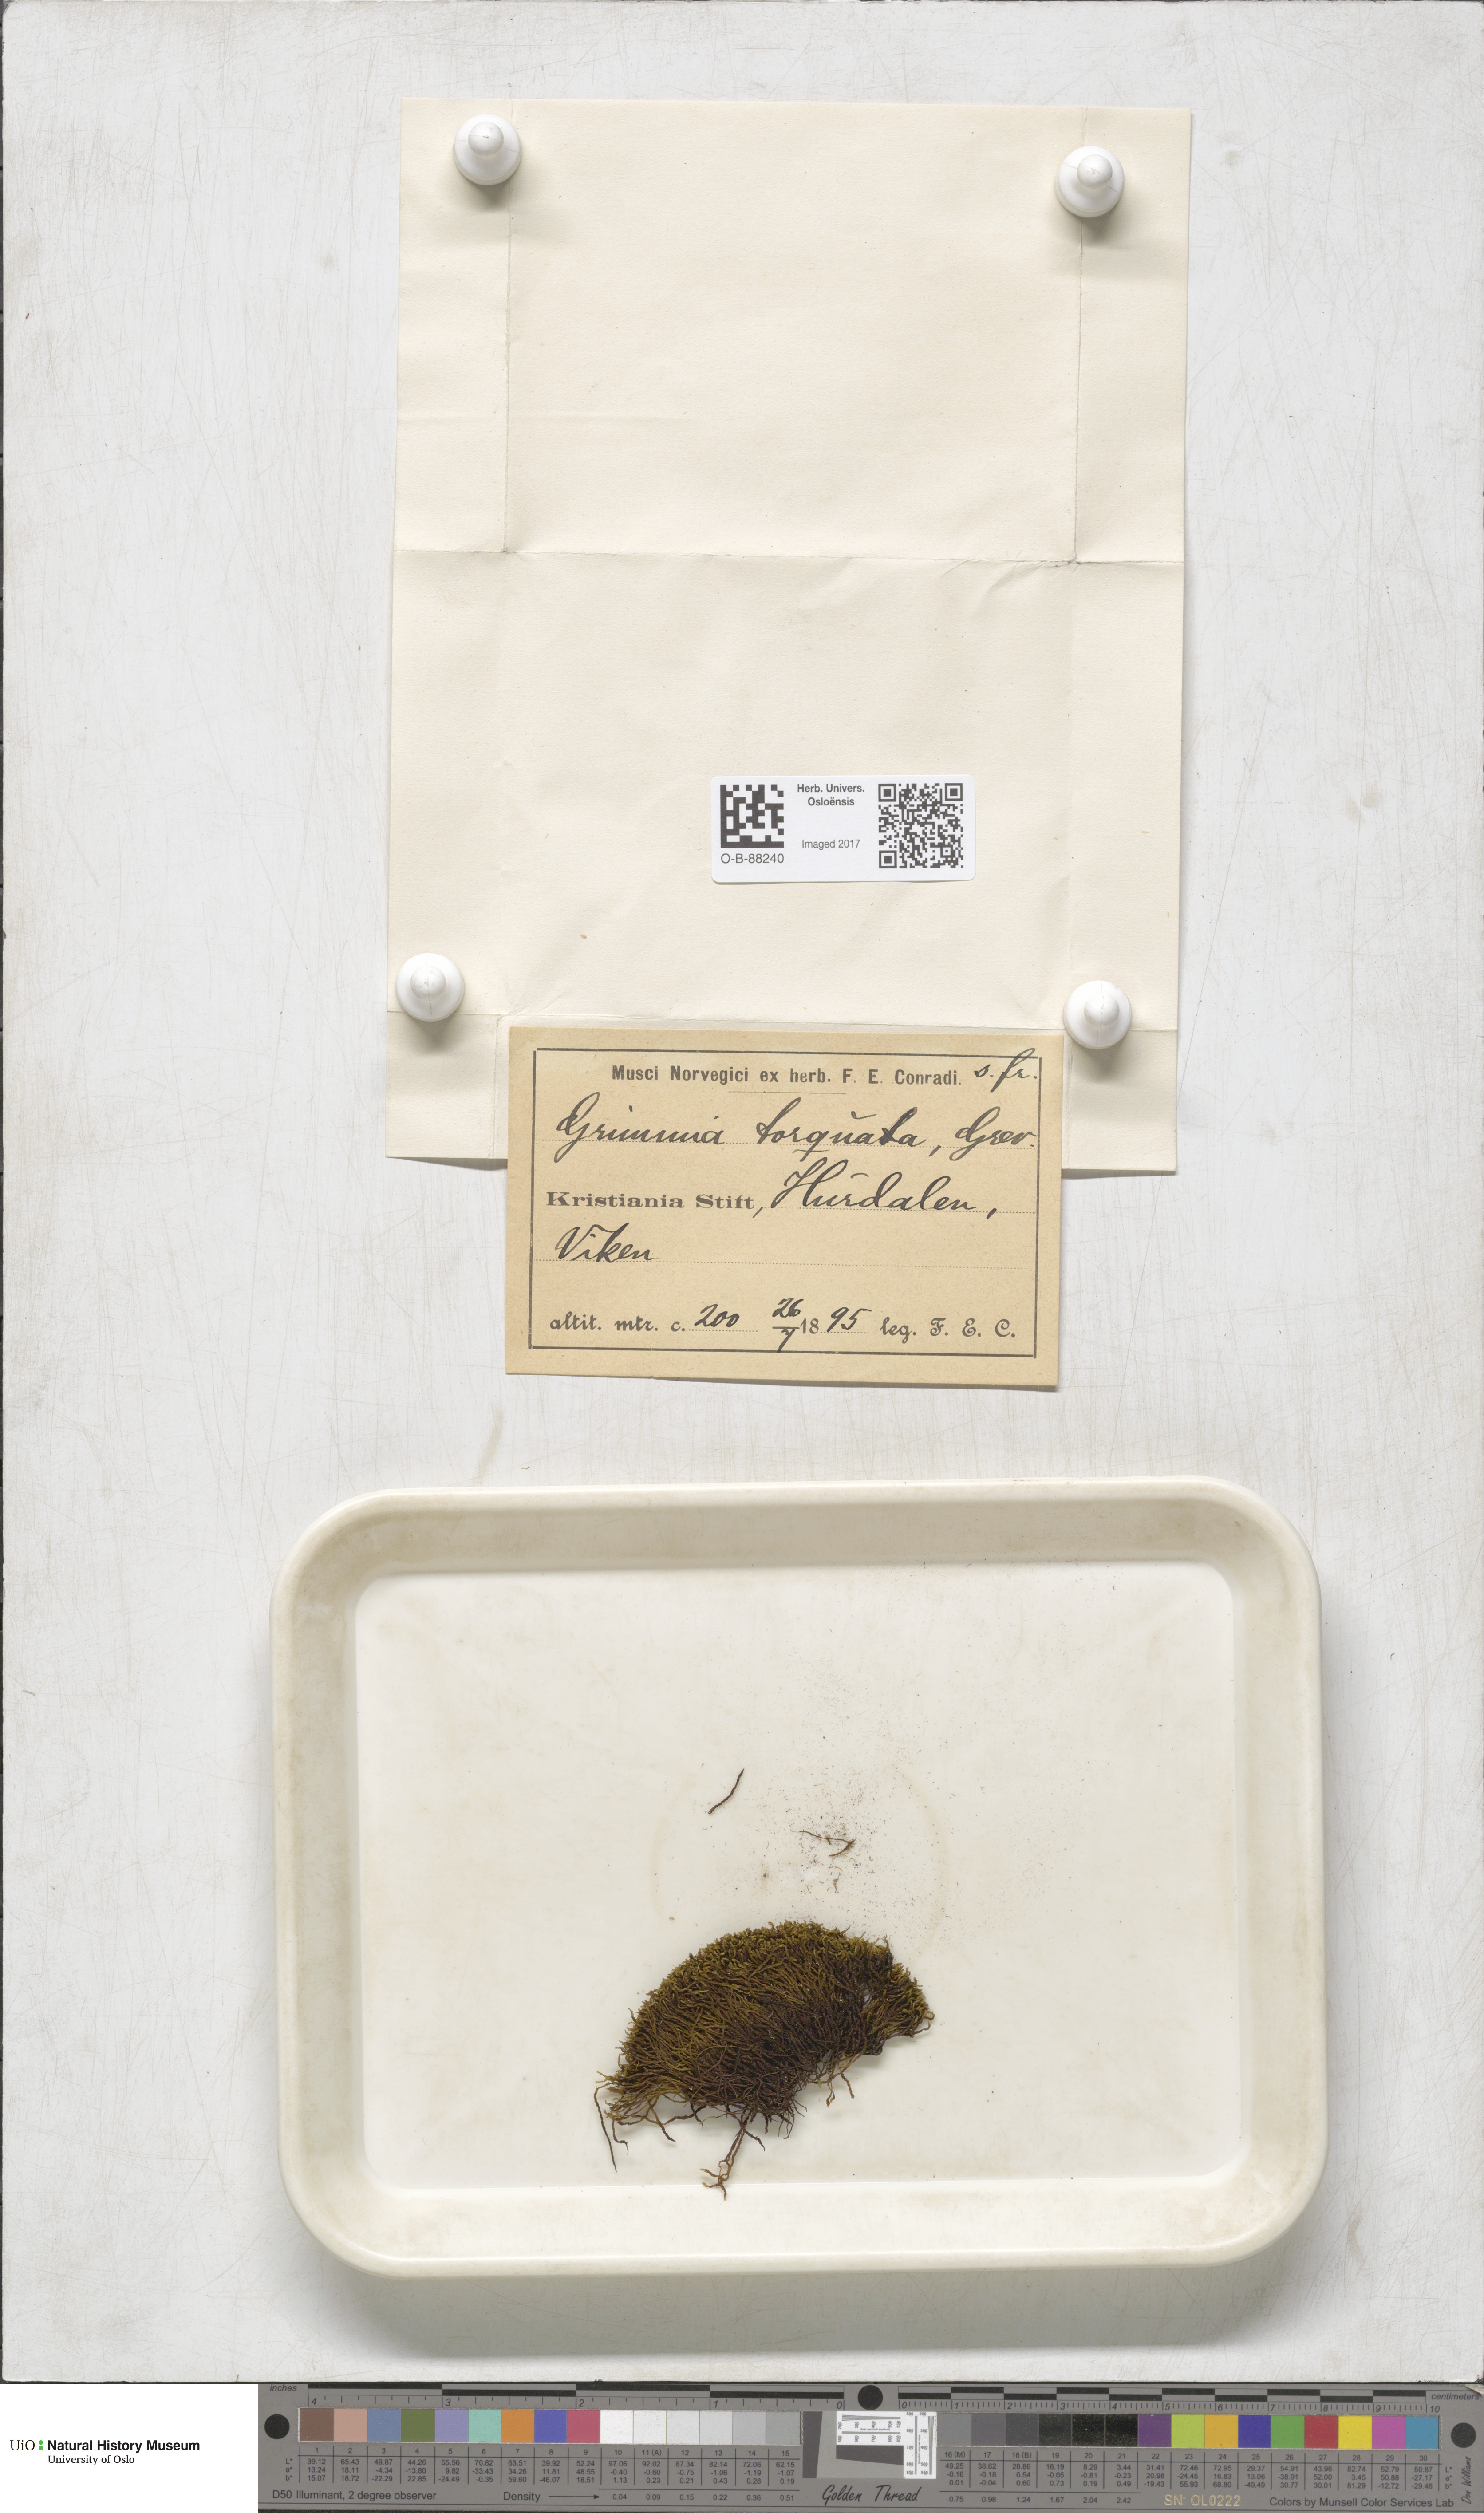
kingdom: Plantae
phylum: Bryophyta
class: Bryopsida
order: Grimmiales
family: Grimmiaceae
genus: Grimmia
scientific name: Grimmia torquata
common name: Twisted grimmia
